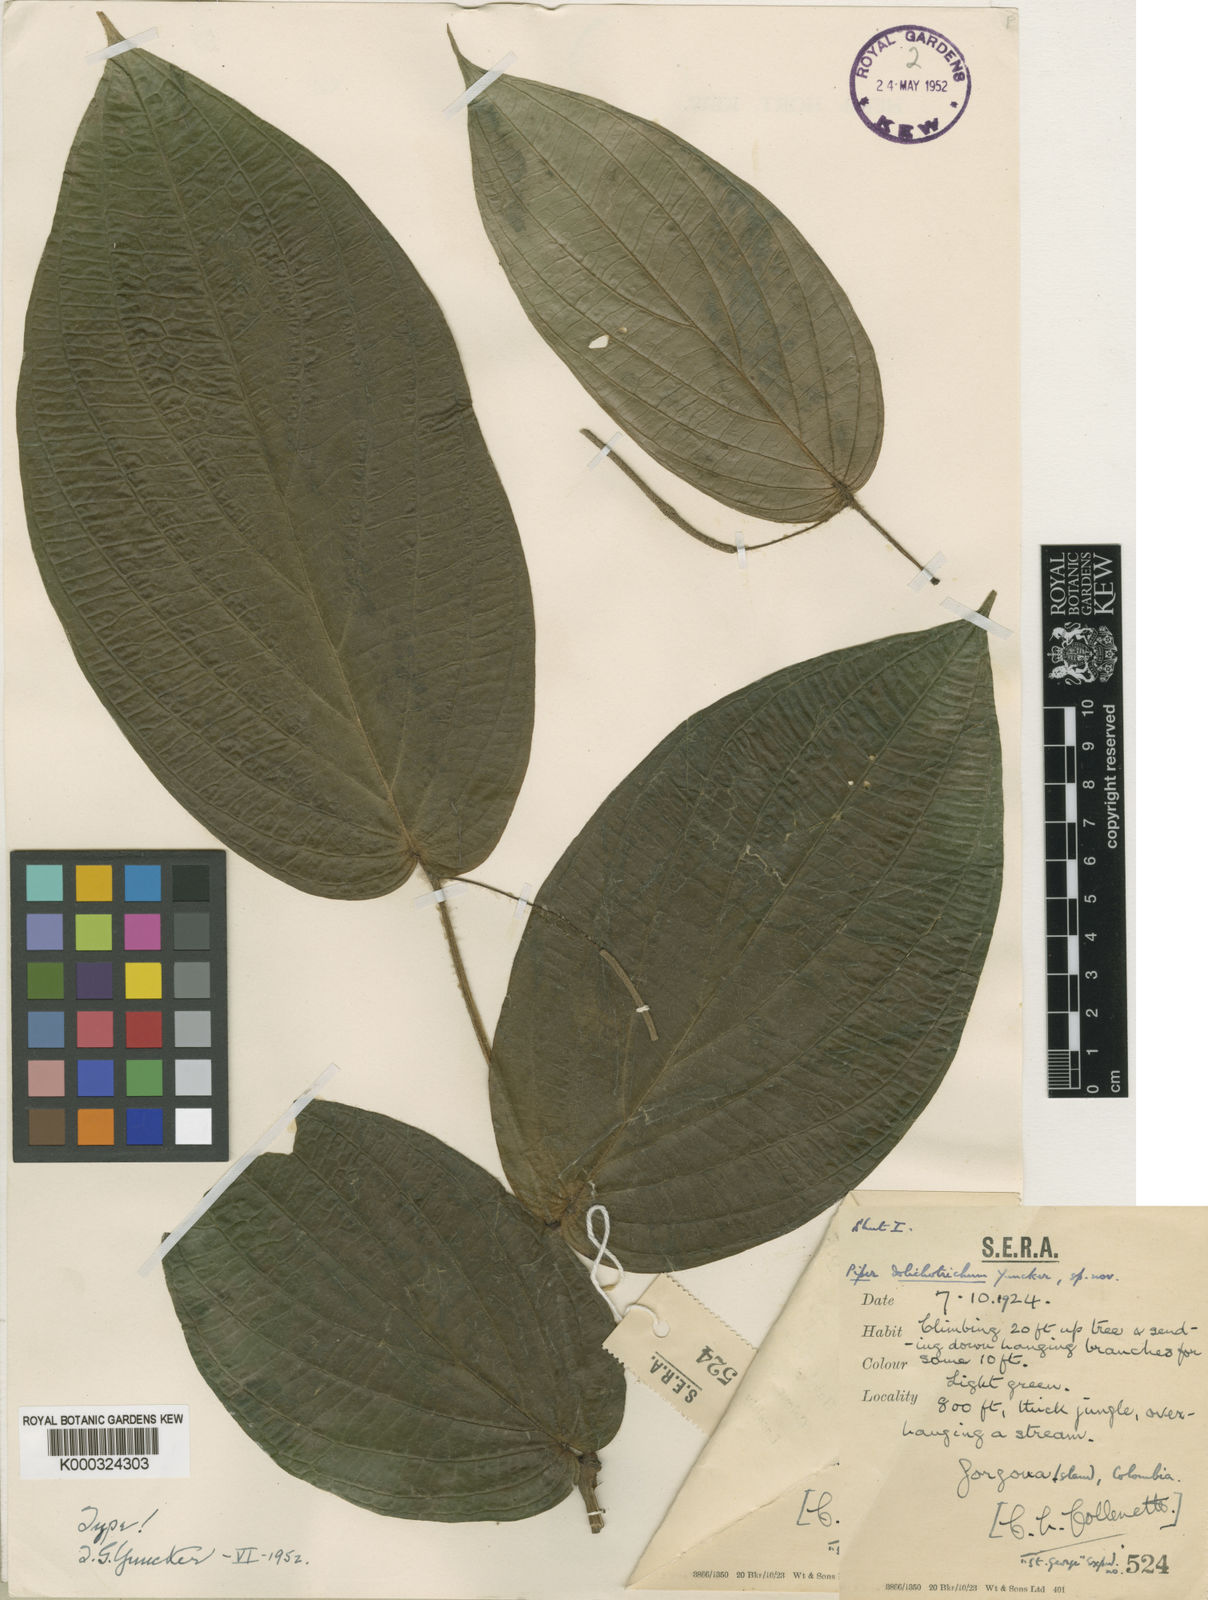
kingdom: Plantae
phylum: Tracheophyta
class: Magnoliopsida
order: Piperales
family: Piperaceae
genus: Piper
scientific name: Piper dolichotrichum
